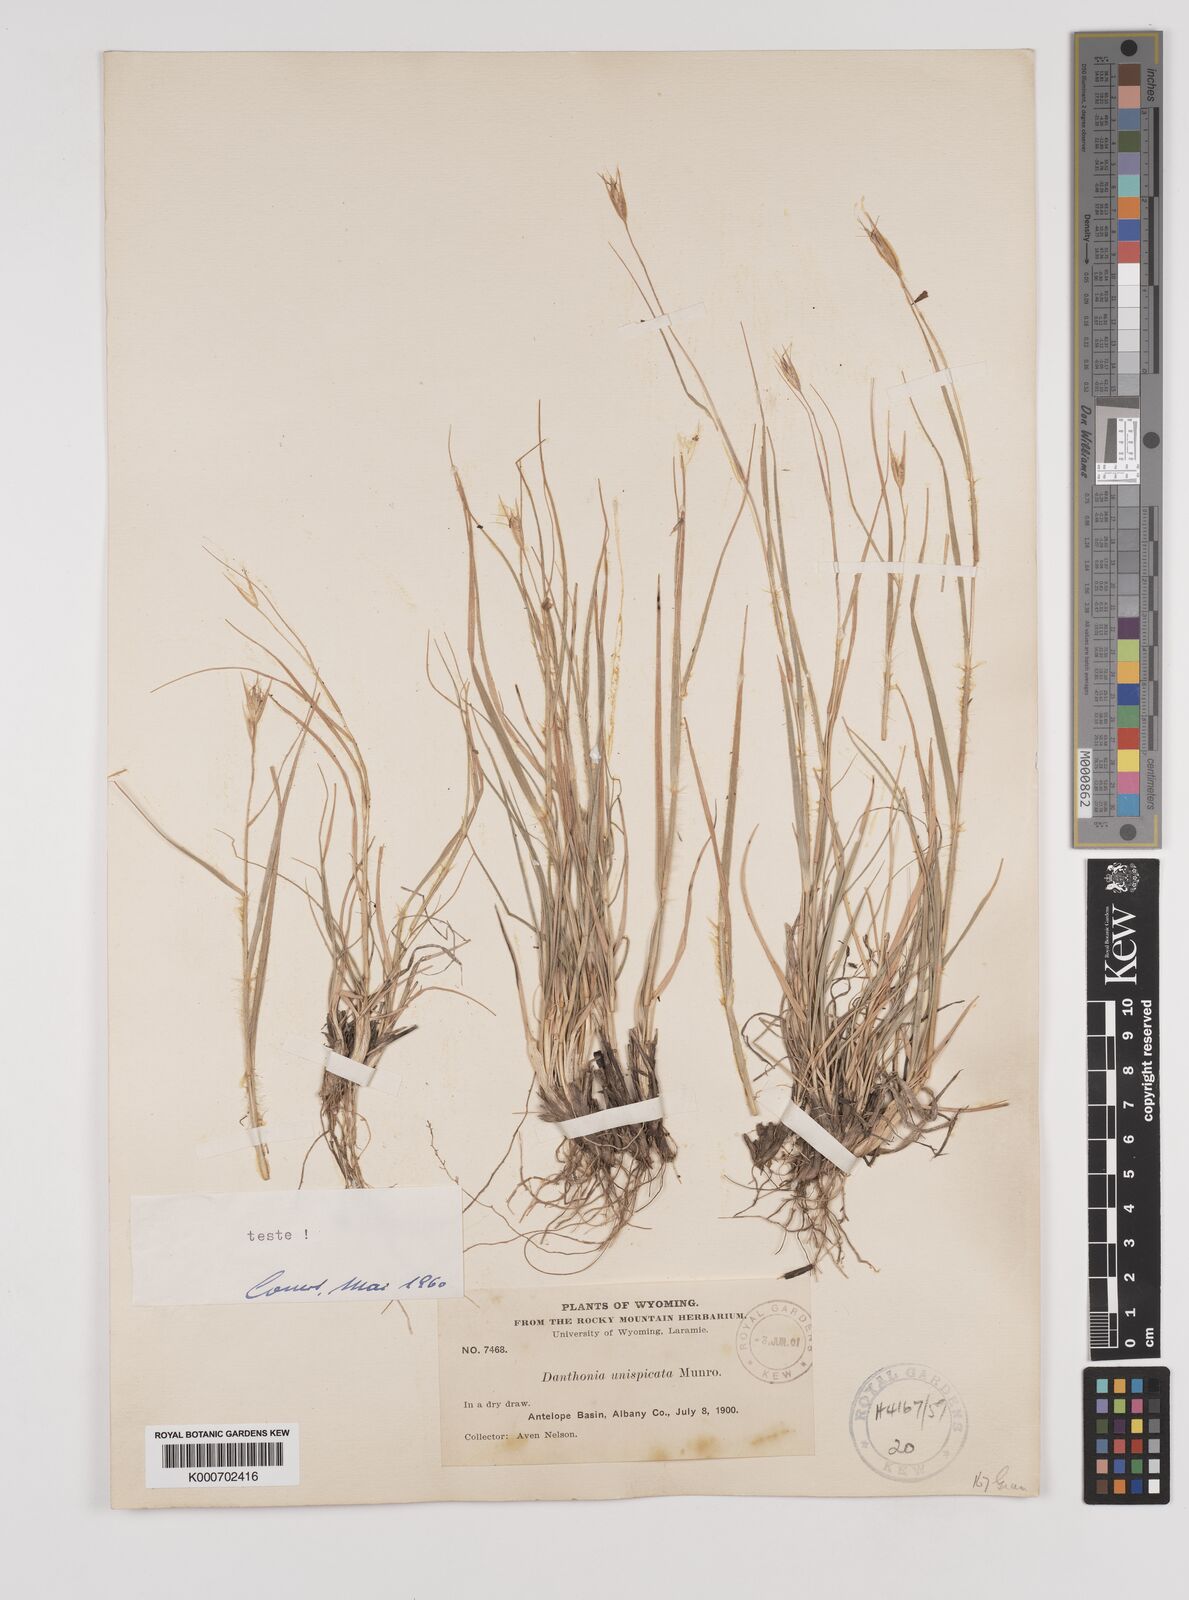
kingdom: Plantae
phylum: Tracheophyta
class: Liliopsida
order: Poales
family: Poaceae
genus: Danthonia
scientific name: Danthonia unispicata
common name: Few-flowered oatgrass
